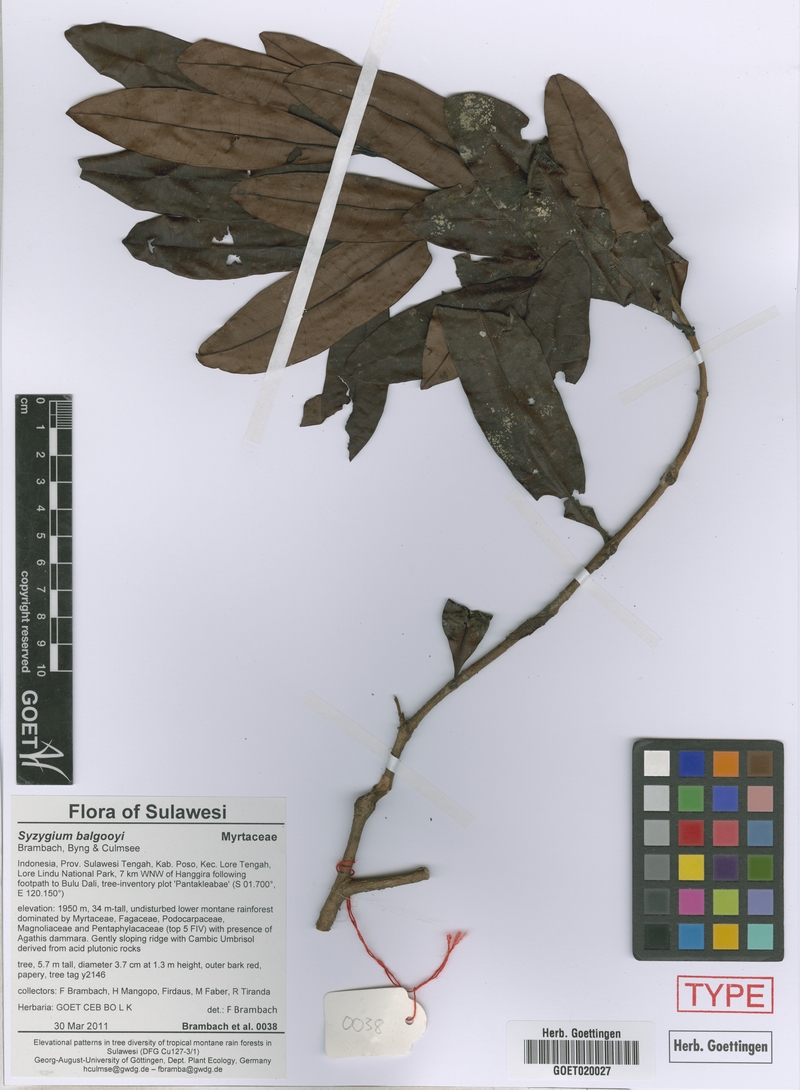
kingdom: Plantae
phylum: Tracheophyta
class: Magnoliopsida
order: Myrtales
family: Myrtaceae
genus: Syzygium
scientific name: Syzygium balgooyi
